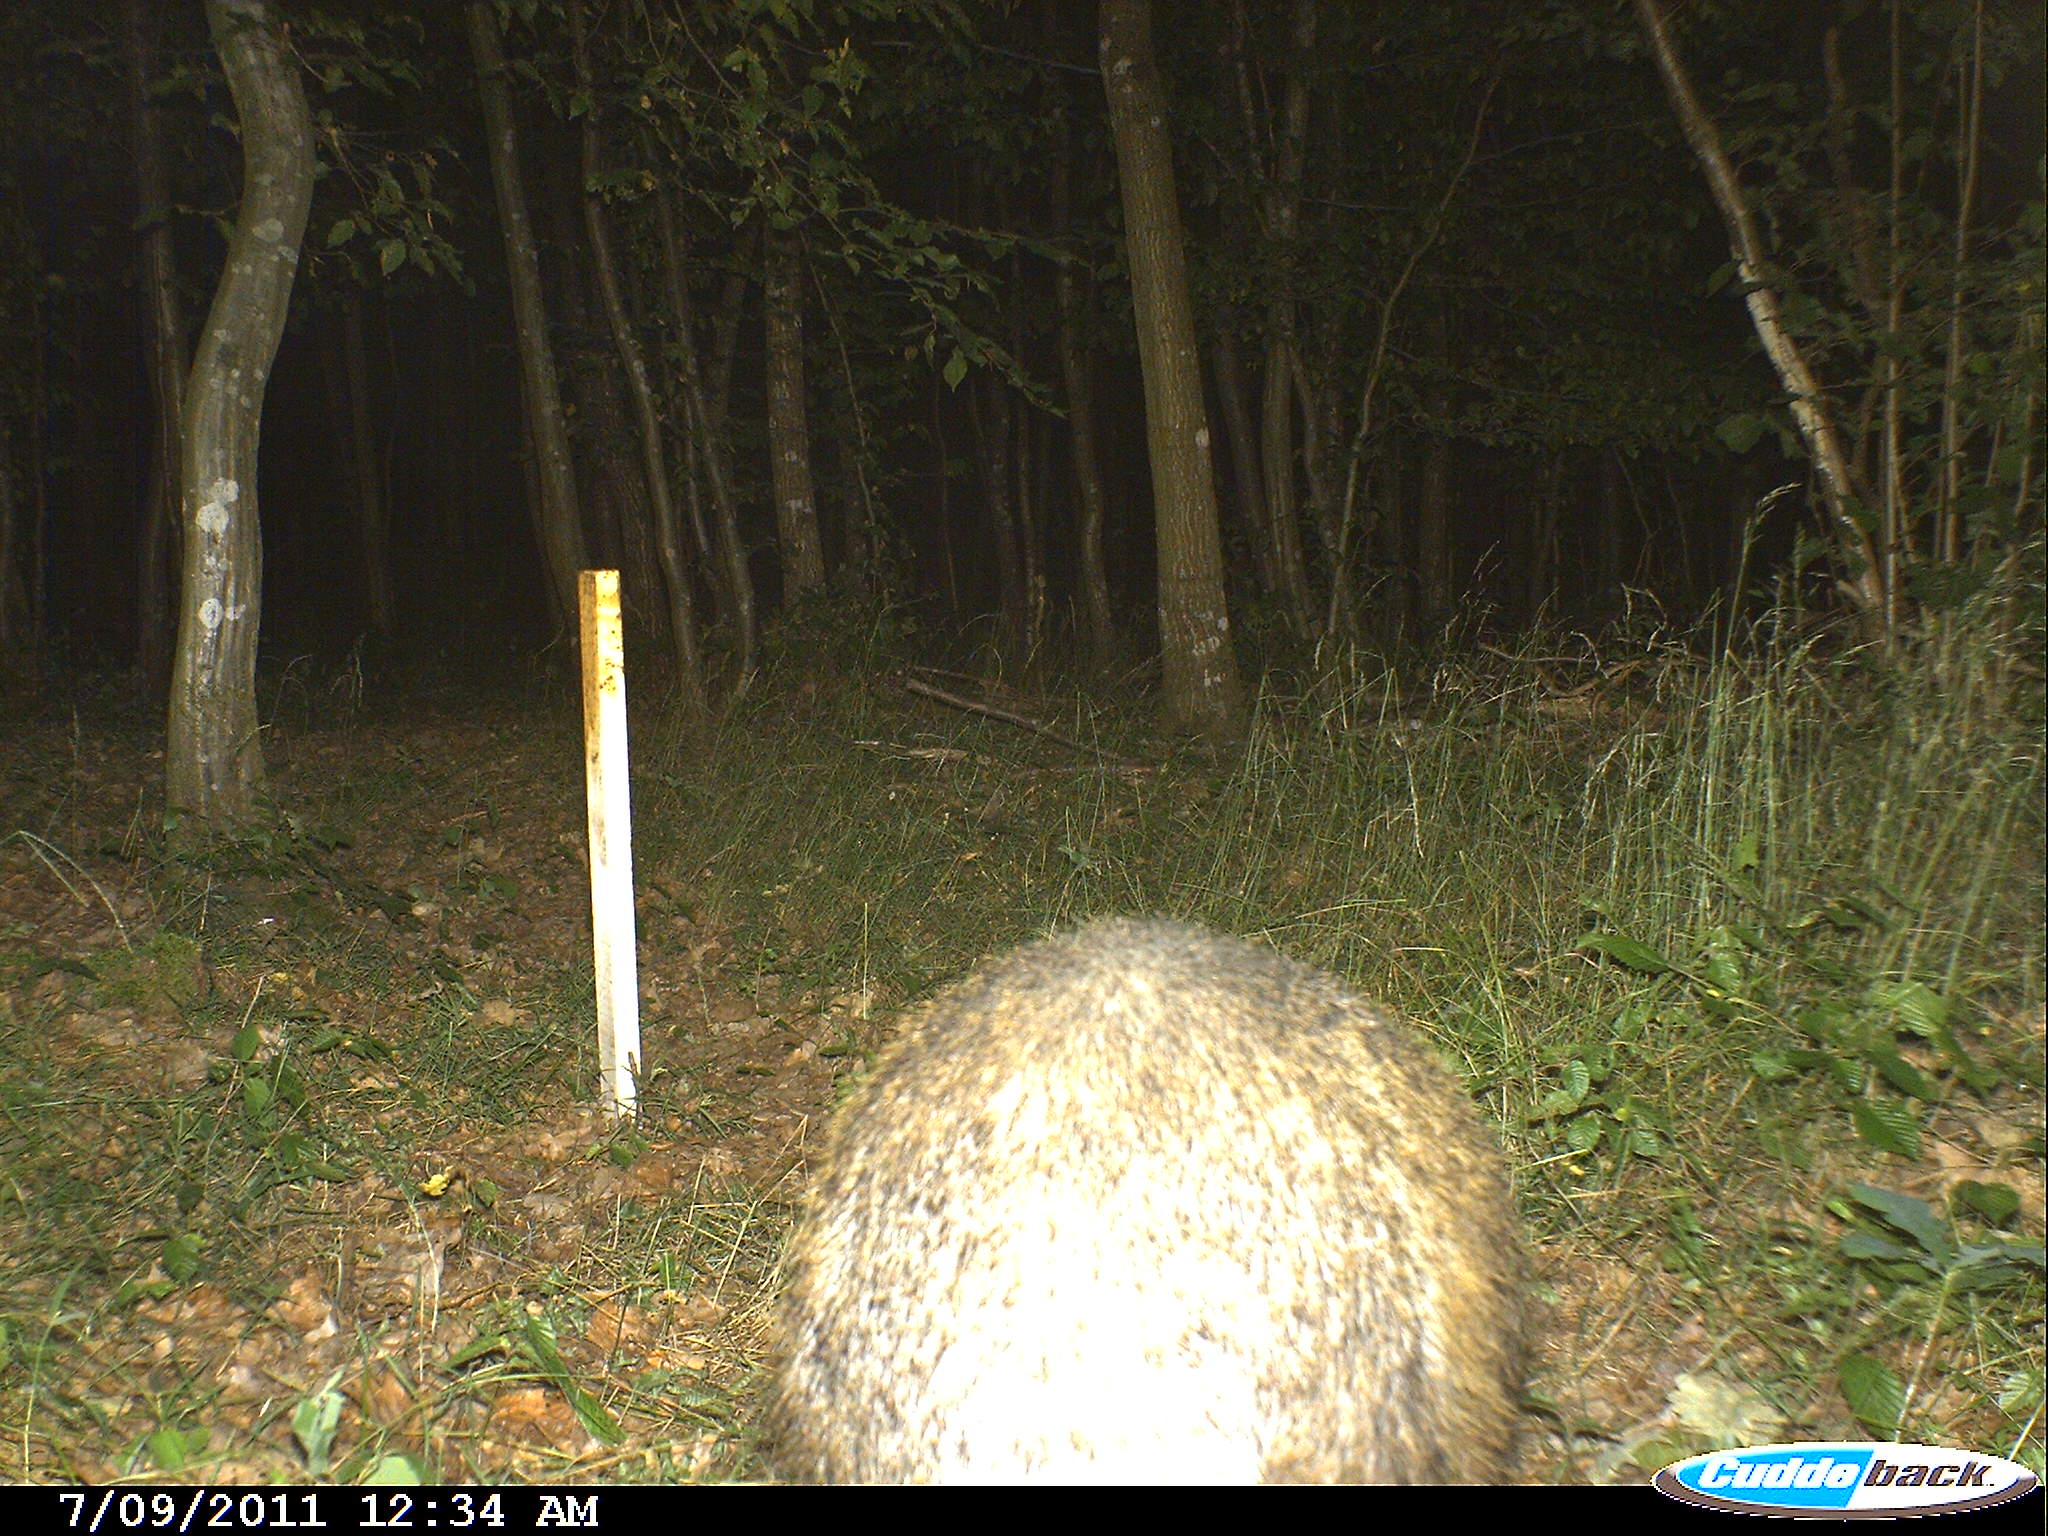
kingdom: Animalia
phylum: Chordata
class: Mammalia
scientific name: Mammalia
